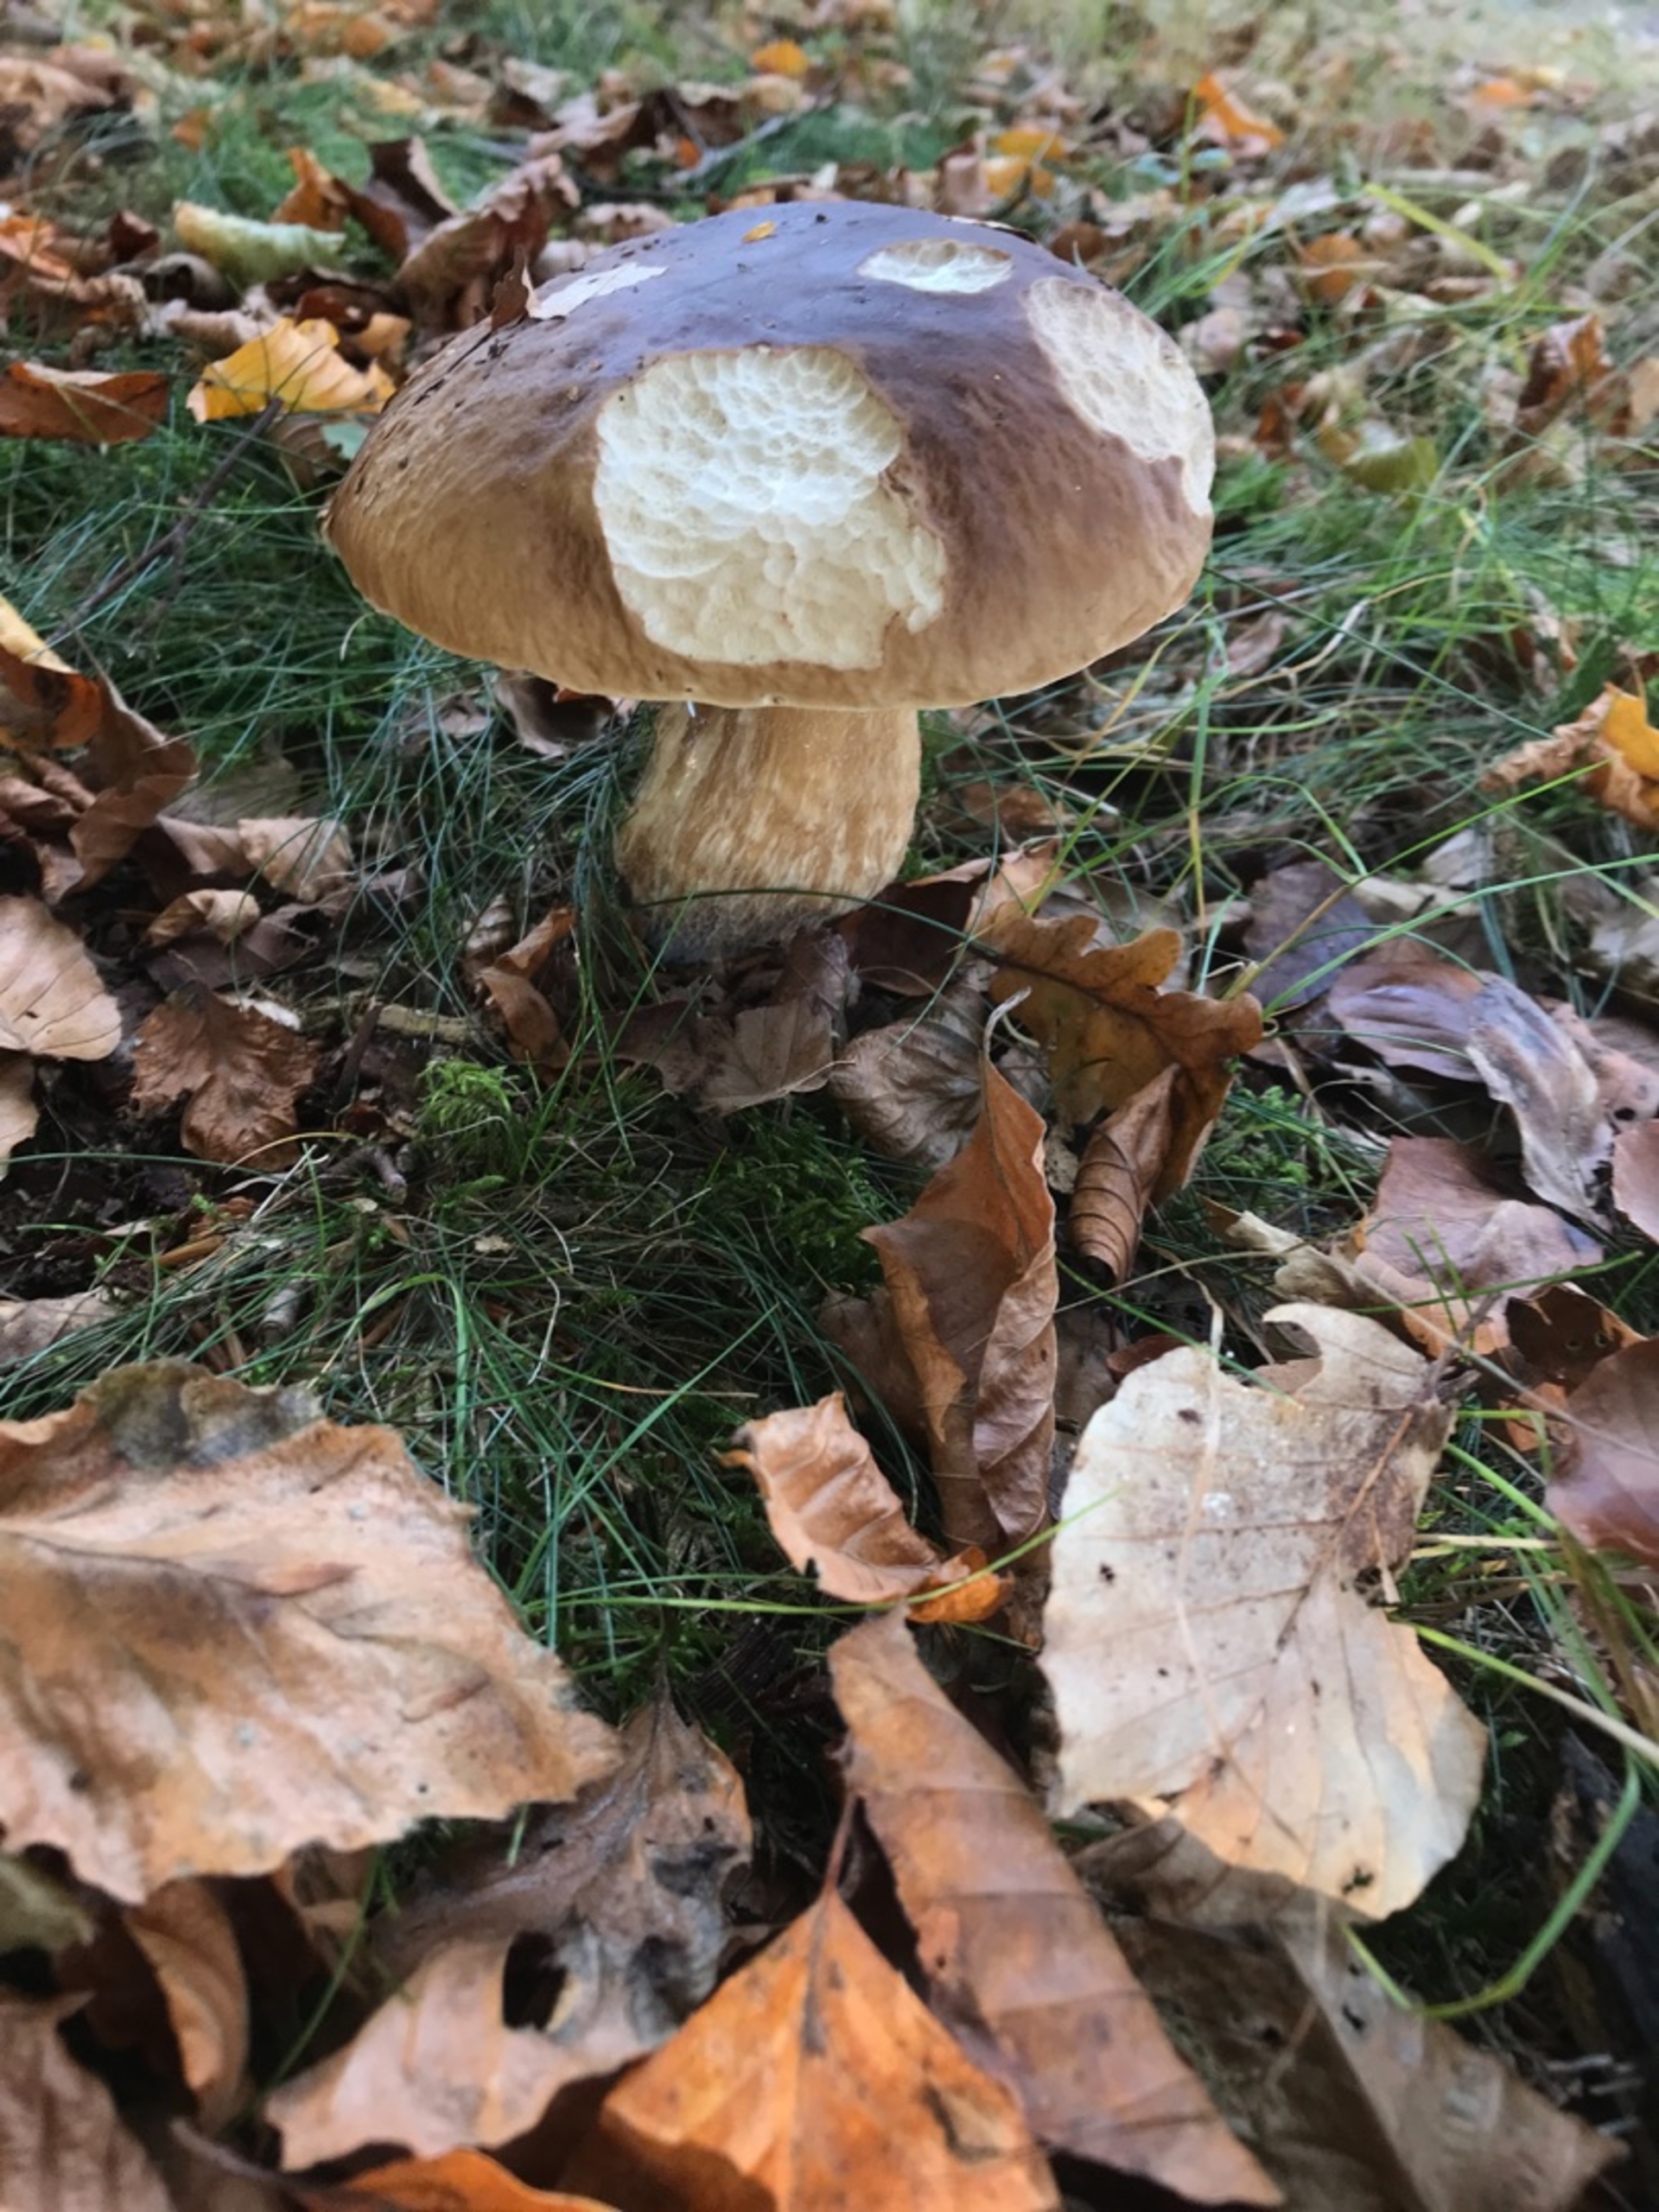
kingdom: Fungi
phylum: Basidiomycota
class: Agaricomycetes
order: Boletales
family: Boletaceae
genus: Boletus
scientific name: Boletus edulis
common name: Spiselig rørhat/karl johan
